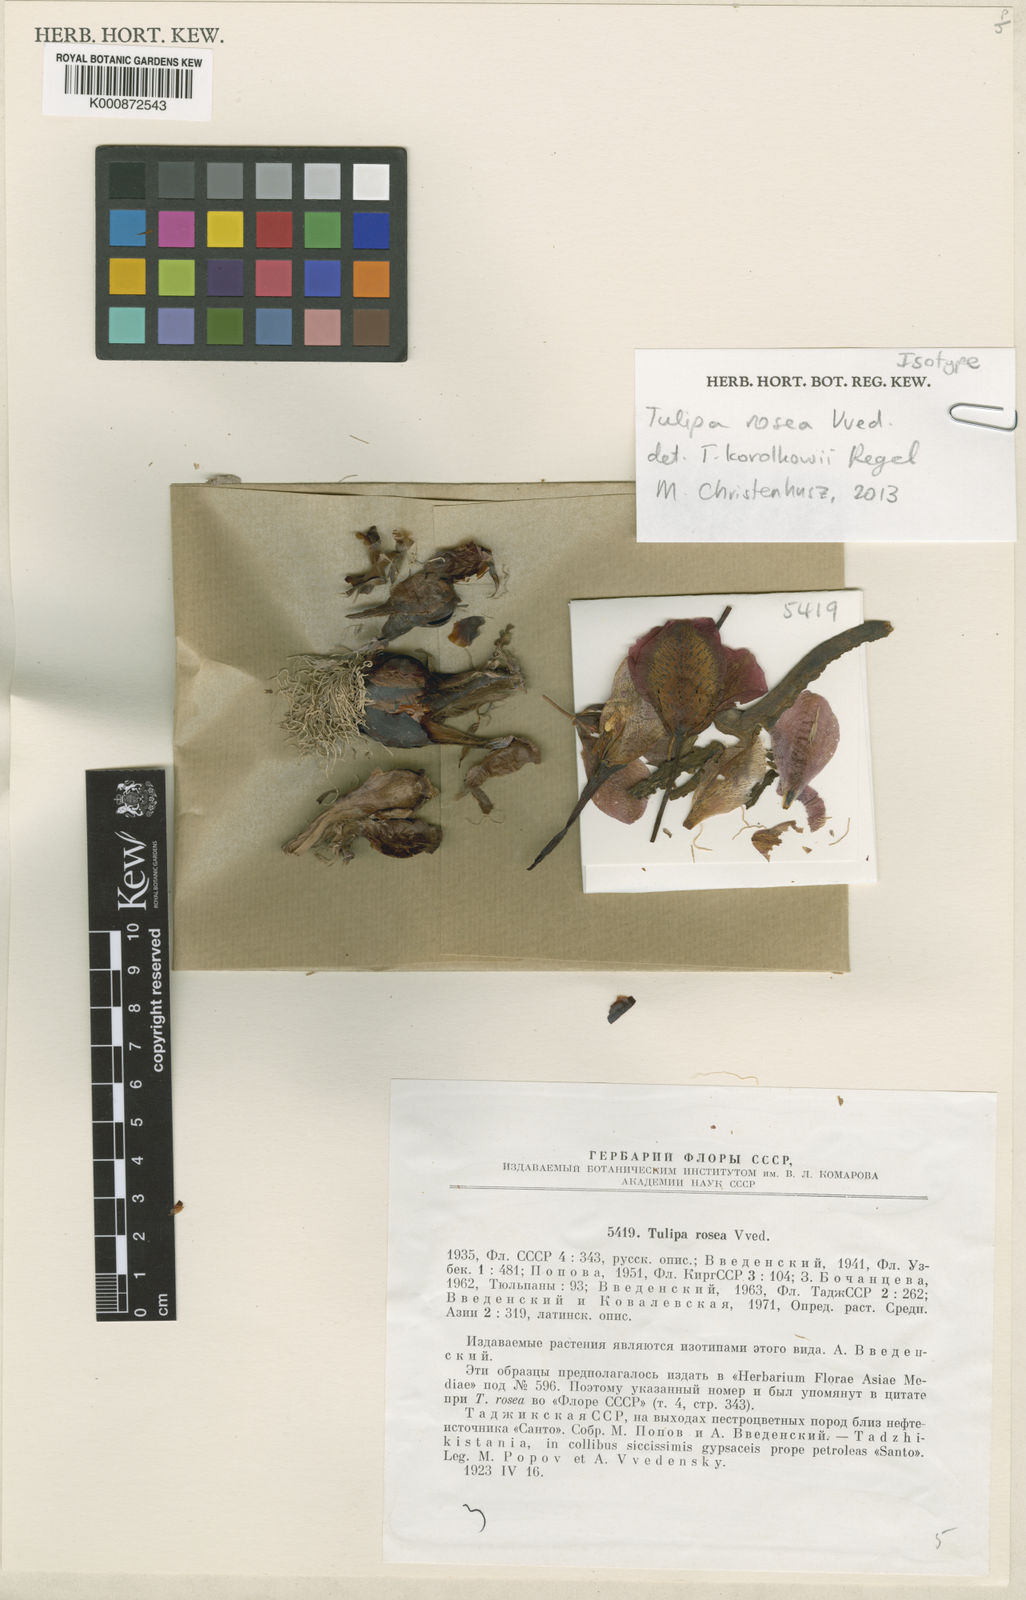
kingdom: Plantae
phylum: Tracheophyta
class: Liliopsida
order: Liliales
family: Liliaceae
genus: Tulipa
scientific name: Tulipa korolkowii
